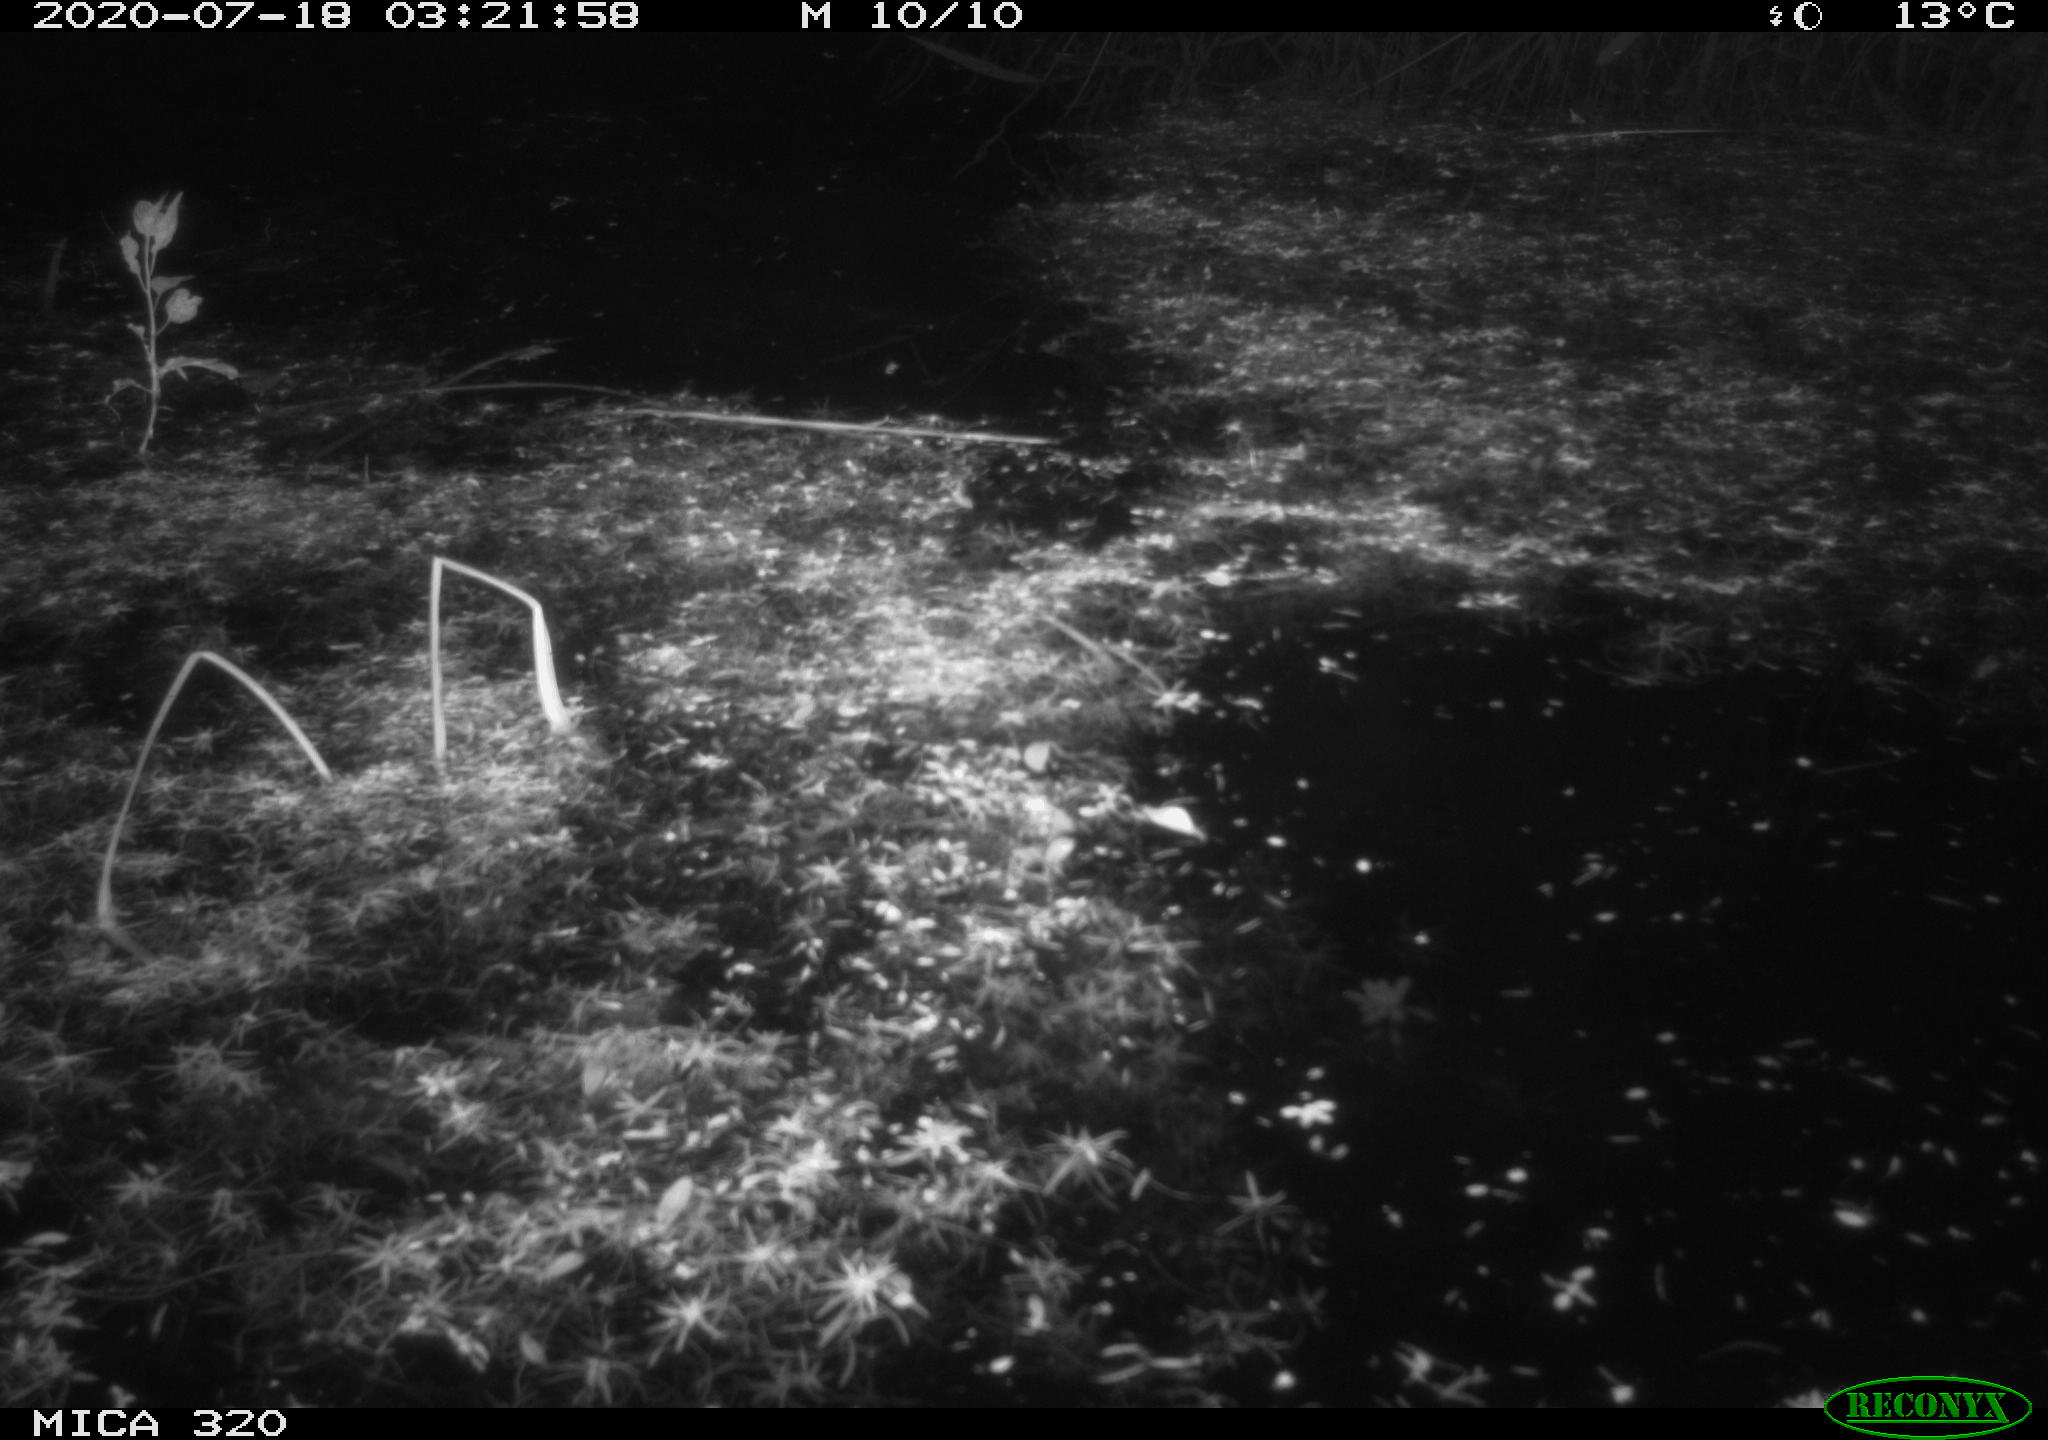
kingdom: Animalia
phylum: Chordata
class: Aves
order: Anseriformes
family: Anatidae
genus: Anas
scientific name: Anas platyrhynchos
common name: Mallard
